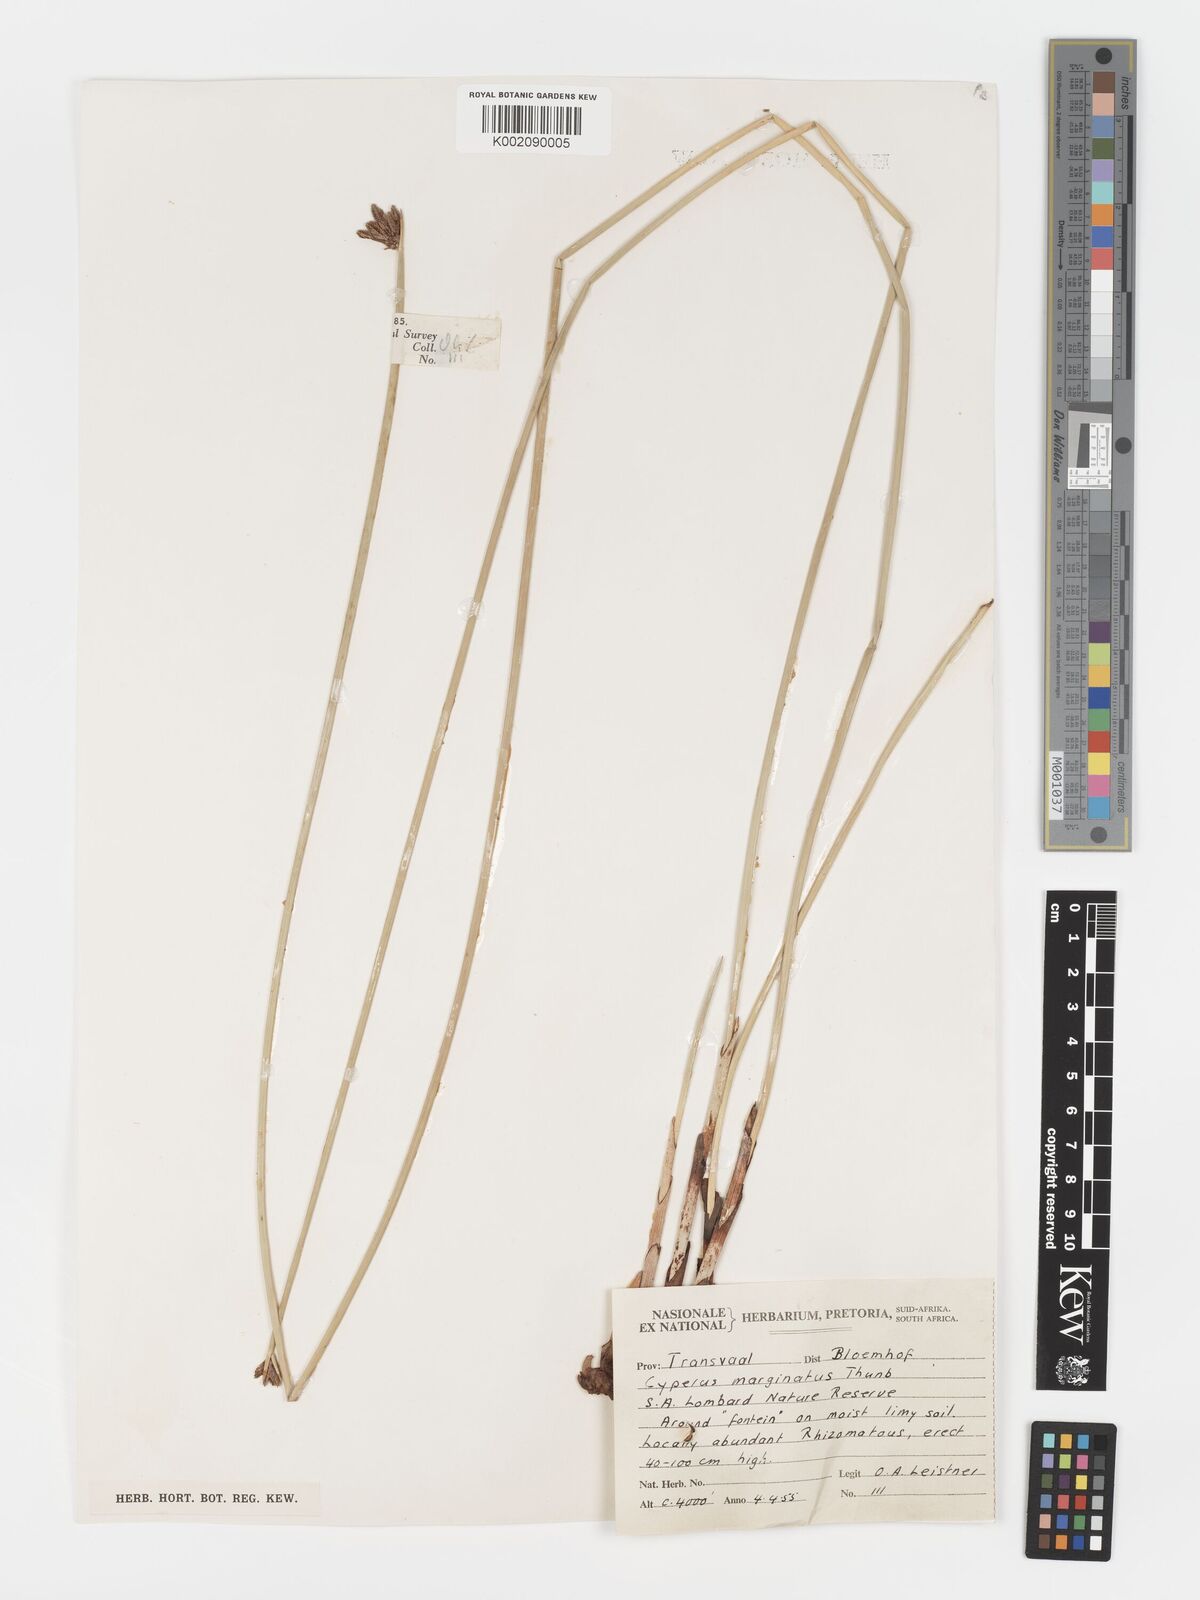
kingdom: Plantae
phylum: Tracheophyta
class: Liliopsida
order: Poales
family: Cyperaceae
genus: Cyperus
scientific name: Cyperus marginatus
